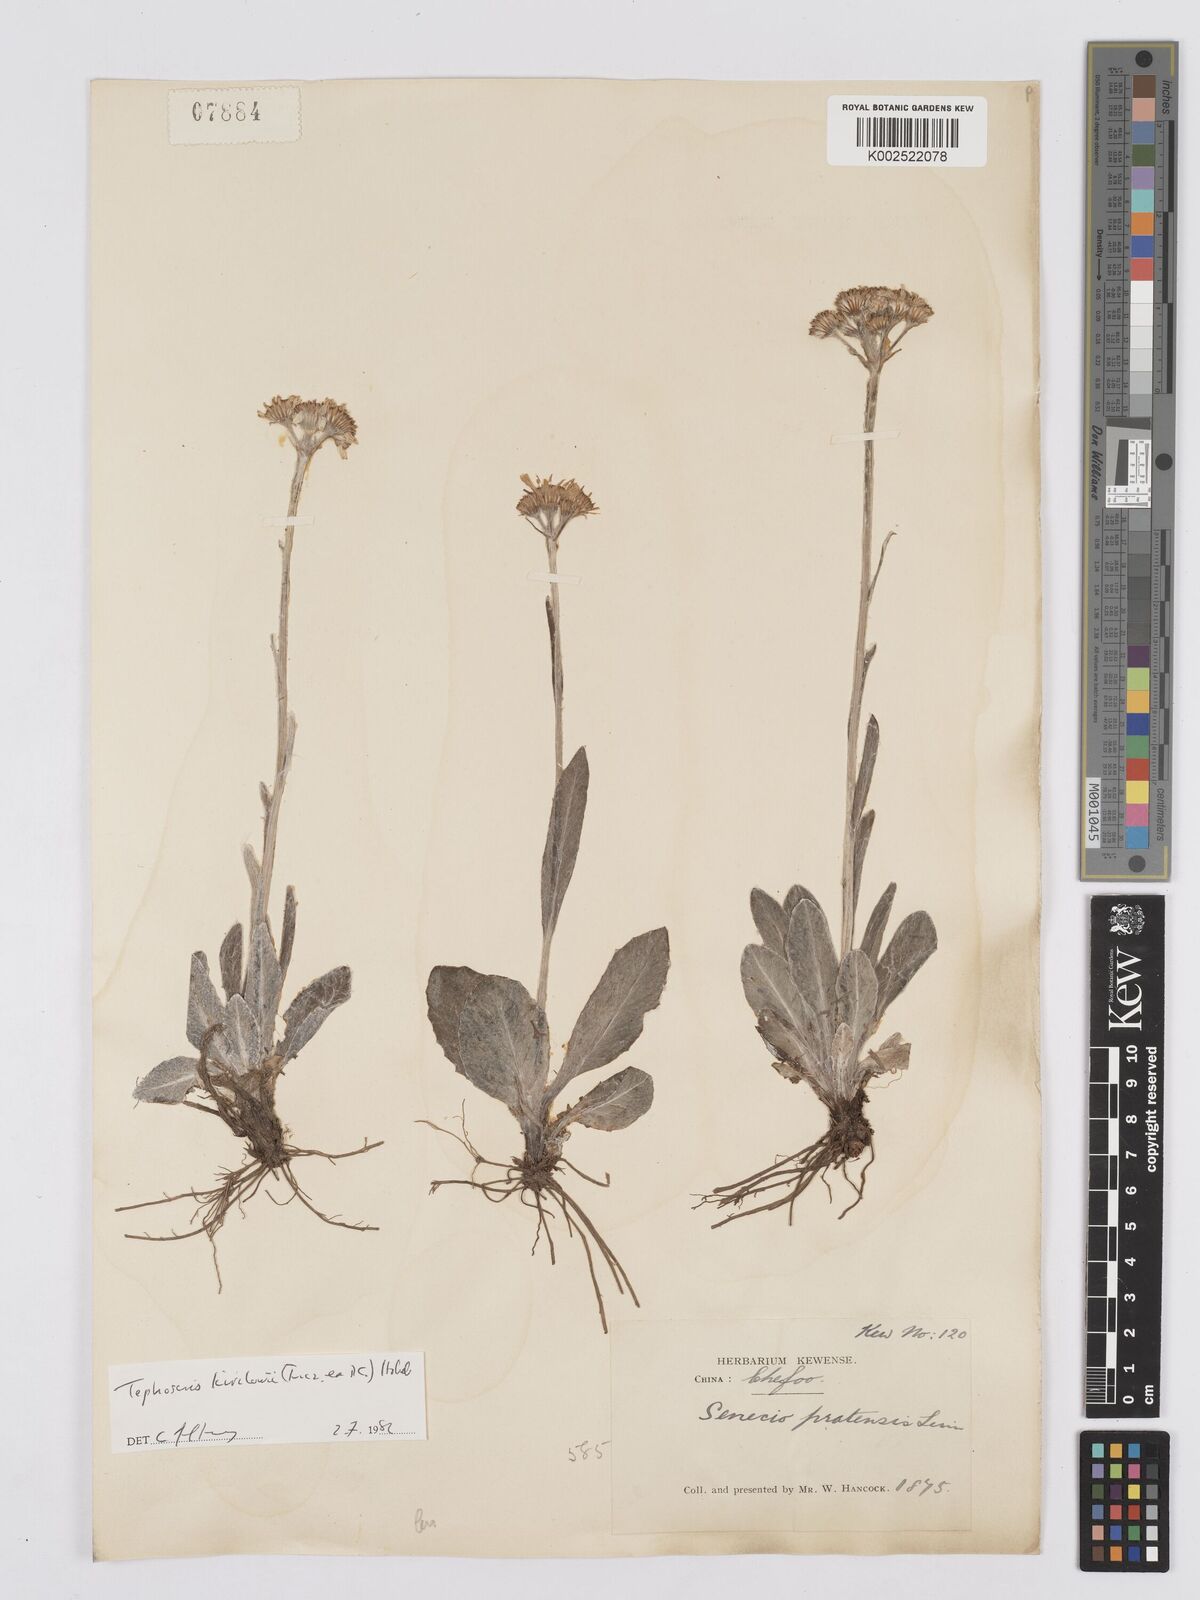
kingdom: Plantae
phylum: Tracheophyta
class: Magnoliopsida
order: Asterales
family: Asteraceae
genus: Tephroseris
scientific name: Tephroseris kirilowii
